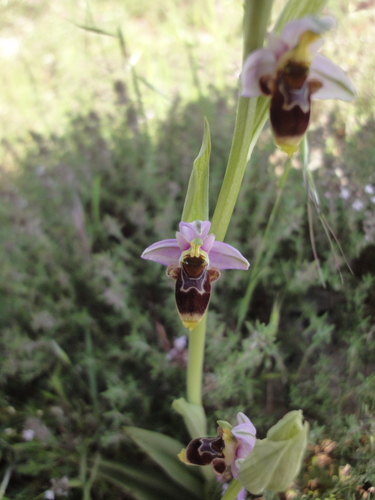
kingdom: Plantae
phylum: Tracheophyta
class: Liliopsida
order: Asparagales
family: Orchidaceae
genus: Ophrys
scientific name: Ophrys scolopax
